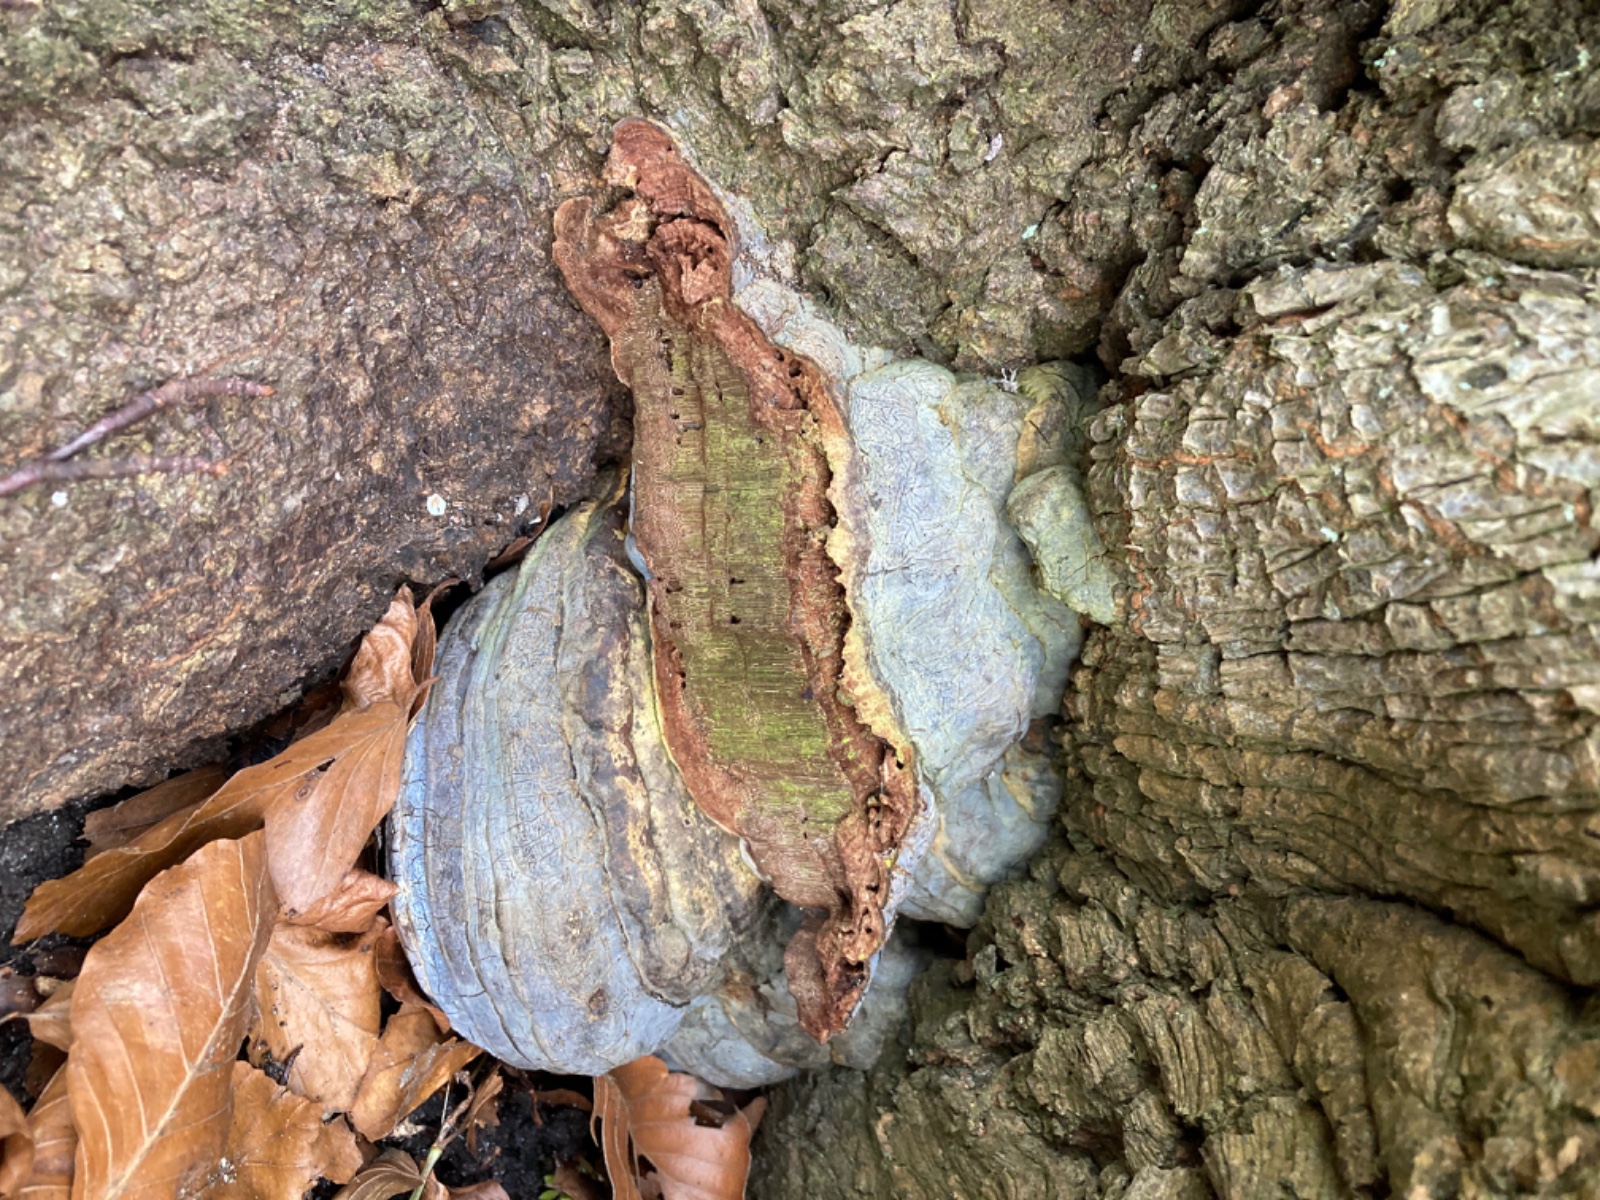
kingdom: Fungi
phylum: Basidiomycota
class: Agaricomycetes
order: Polyporales
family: Polyporaceae
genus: Ganoderma
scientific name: Ganoderma pfeifferi
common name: kobberrød lakporesvamp
